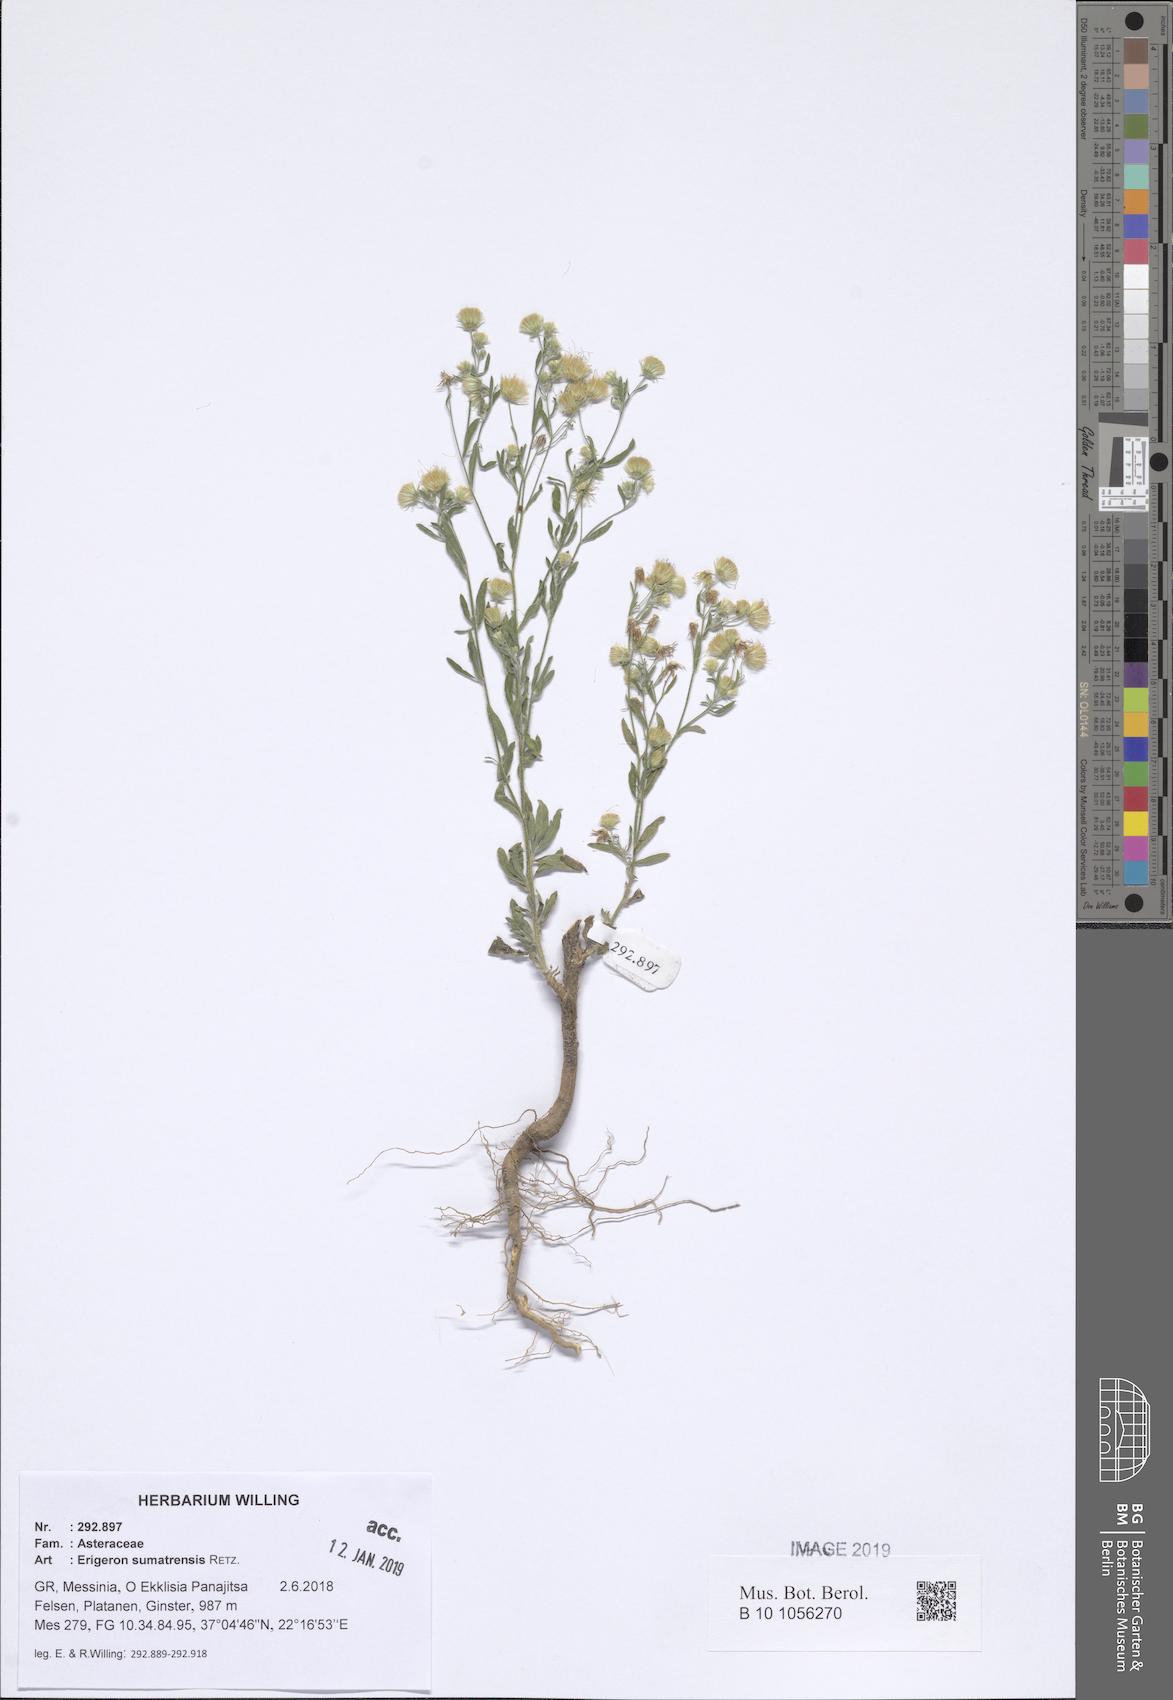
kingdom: Plantae
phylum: Tracheophyta
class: Magnoliopsida
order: Asterales
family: Asteraceae
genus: Erigeron
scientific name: Erigeron sumatrensis
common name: Daisy
